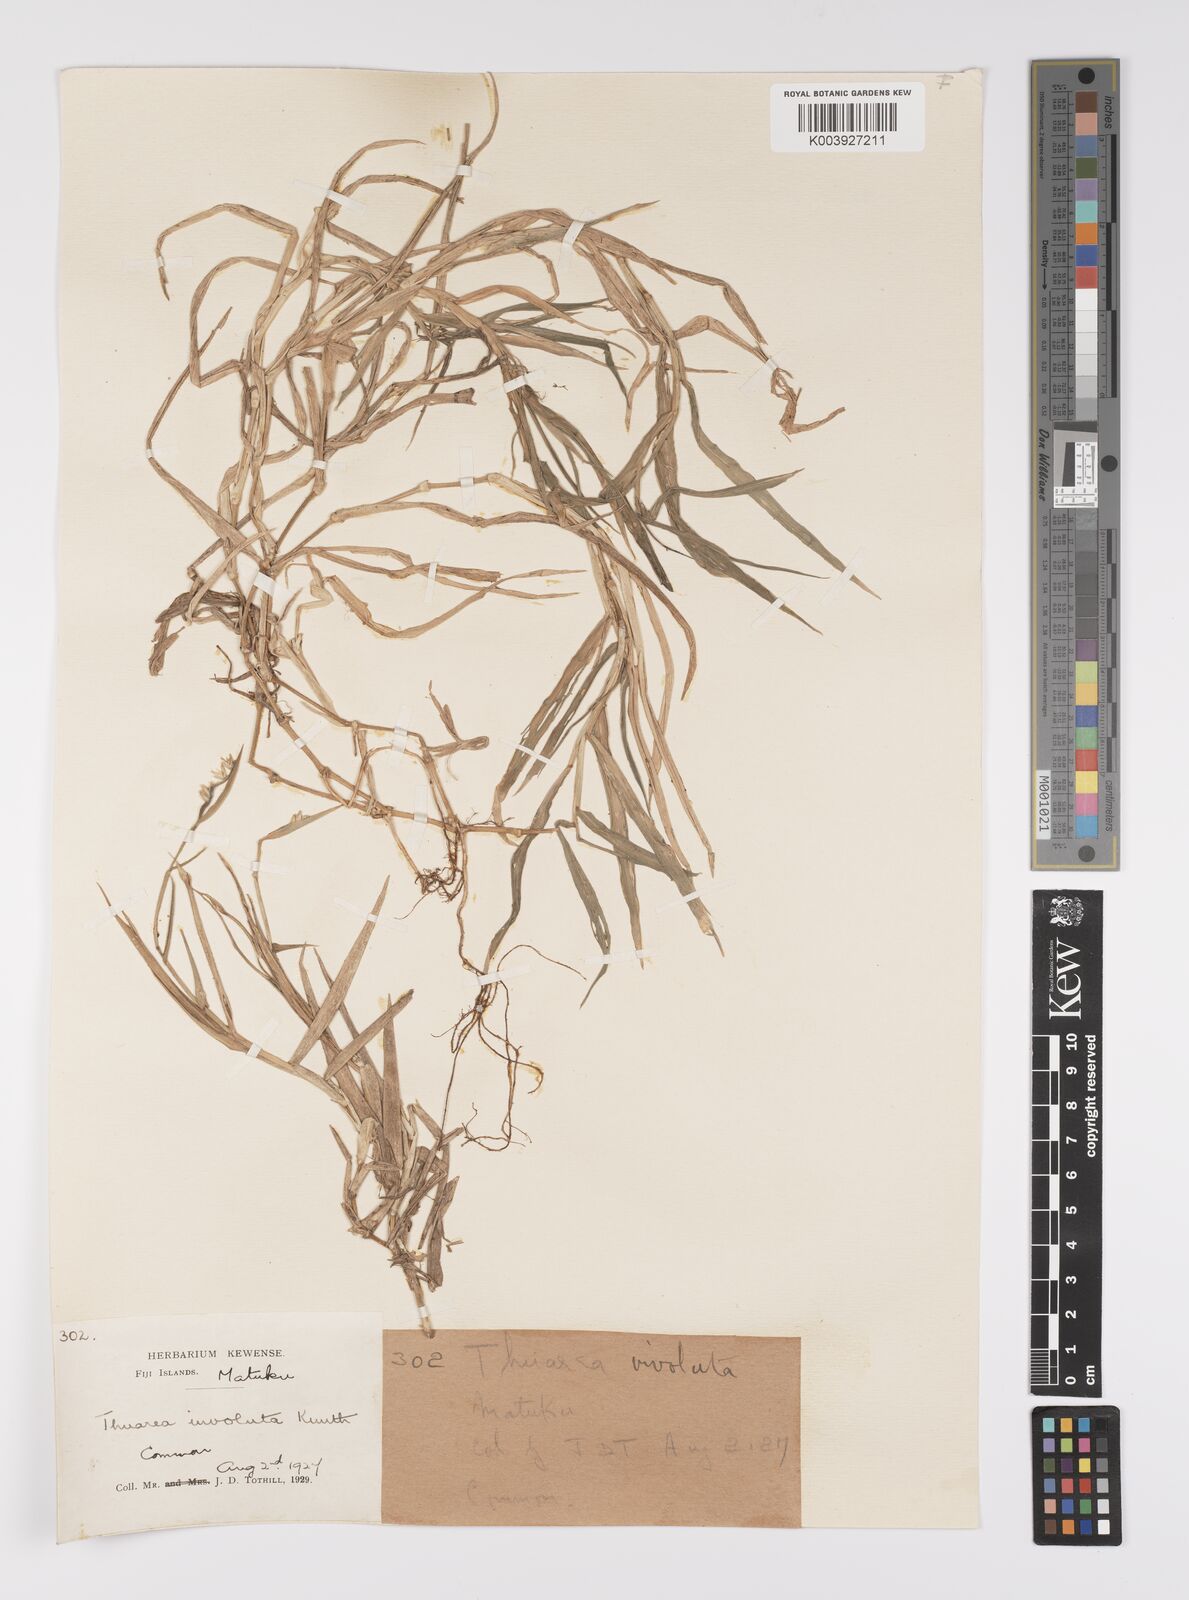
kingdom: Plantae
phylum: Tracheophyta
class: Liliopsida
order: Poales
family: Poaceae
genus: Thuarea
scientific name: Thuarea involuta
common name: Tropical beach grass
